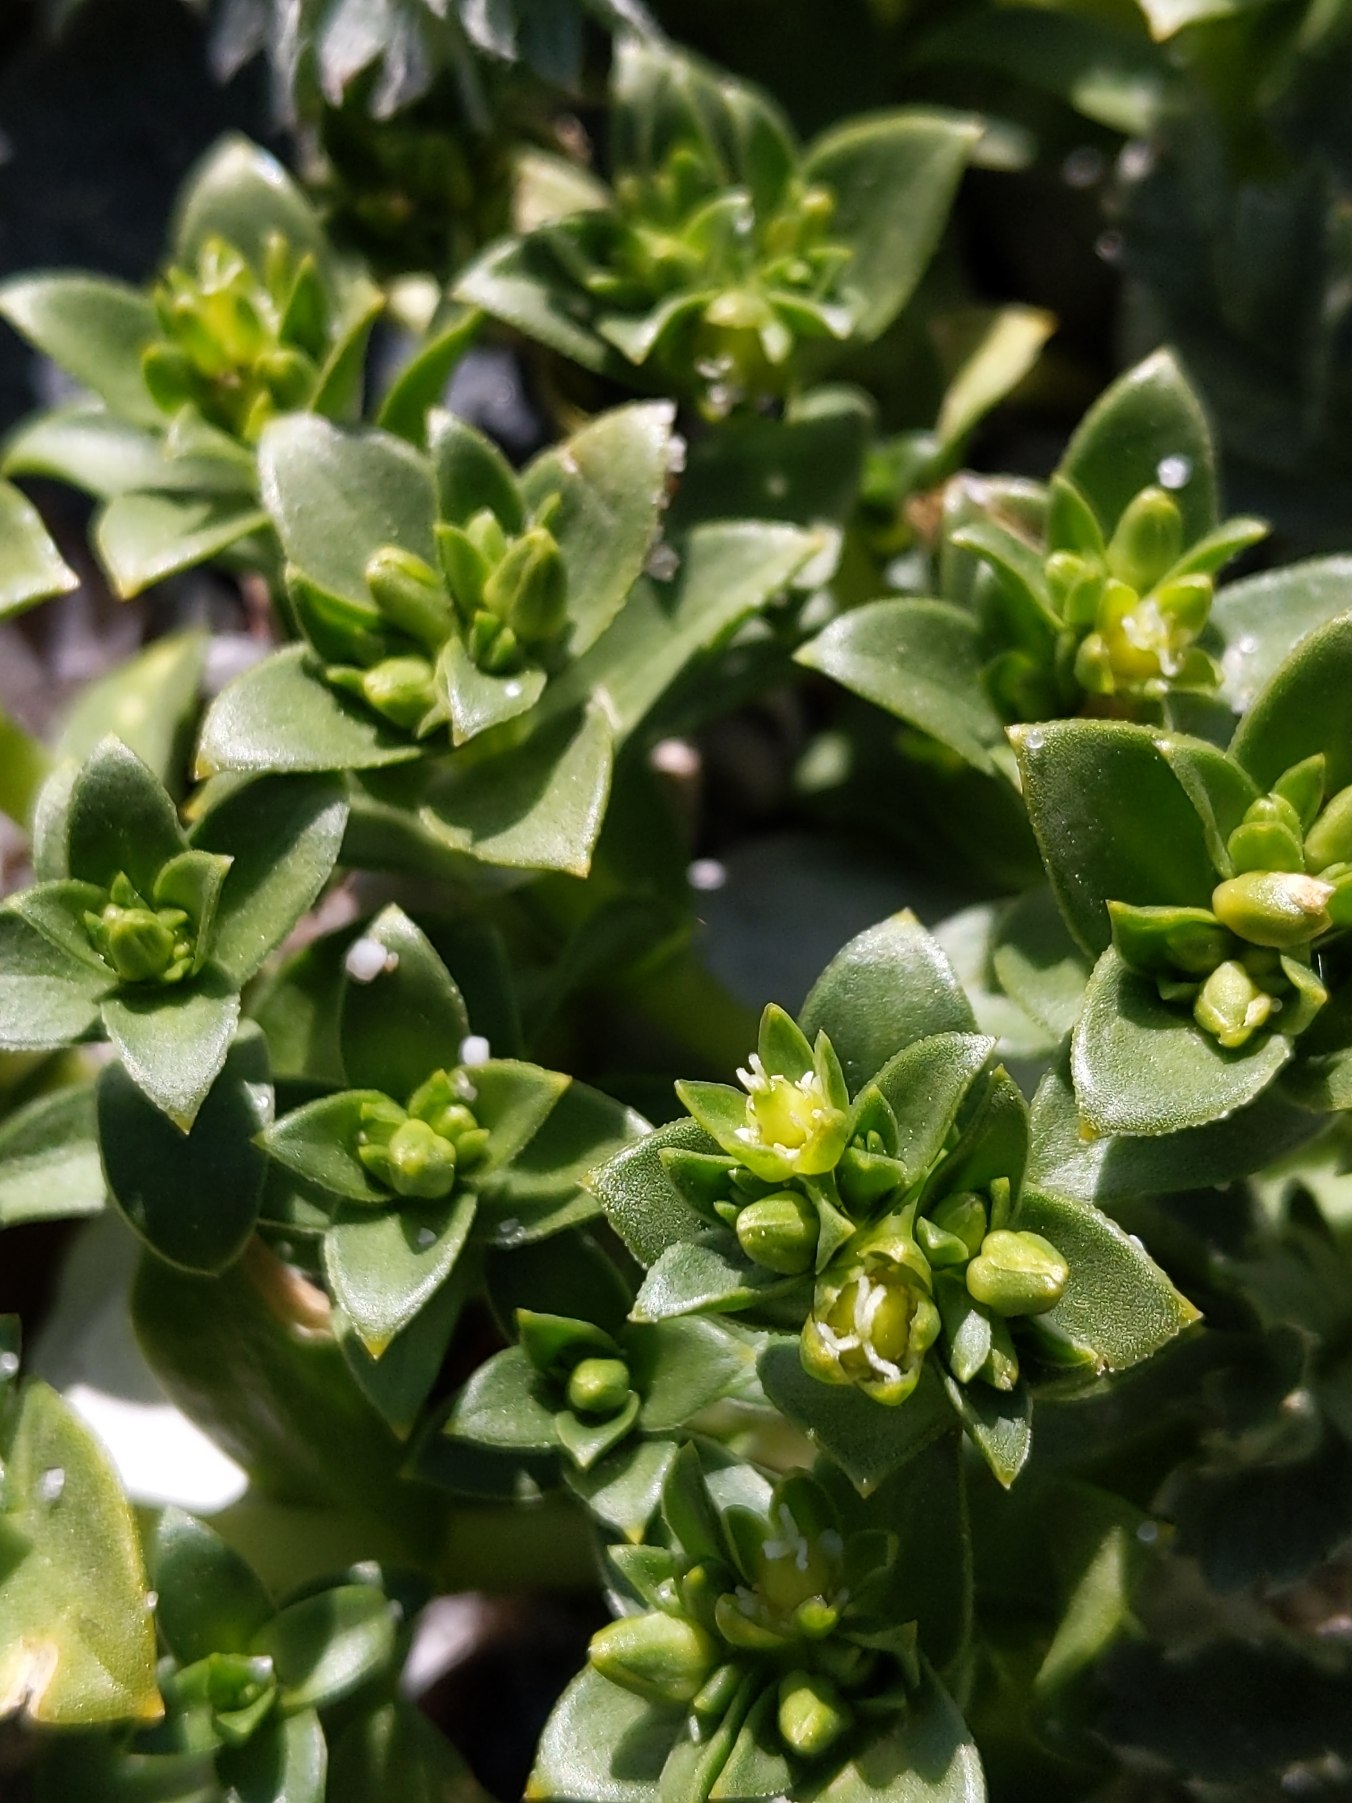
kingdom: Plantae
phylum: Tracheophyta
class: Magnoliopsida
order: Caryophyllales
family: Caryophyllaceae
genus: Honckenya
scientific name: Honckenya peploides
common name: Strandarve
